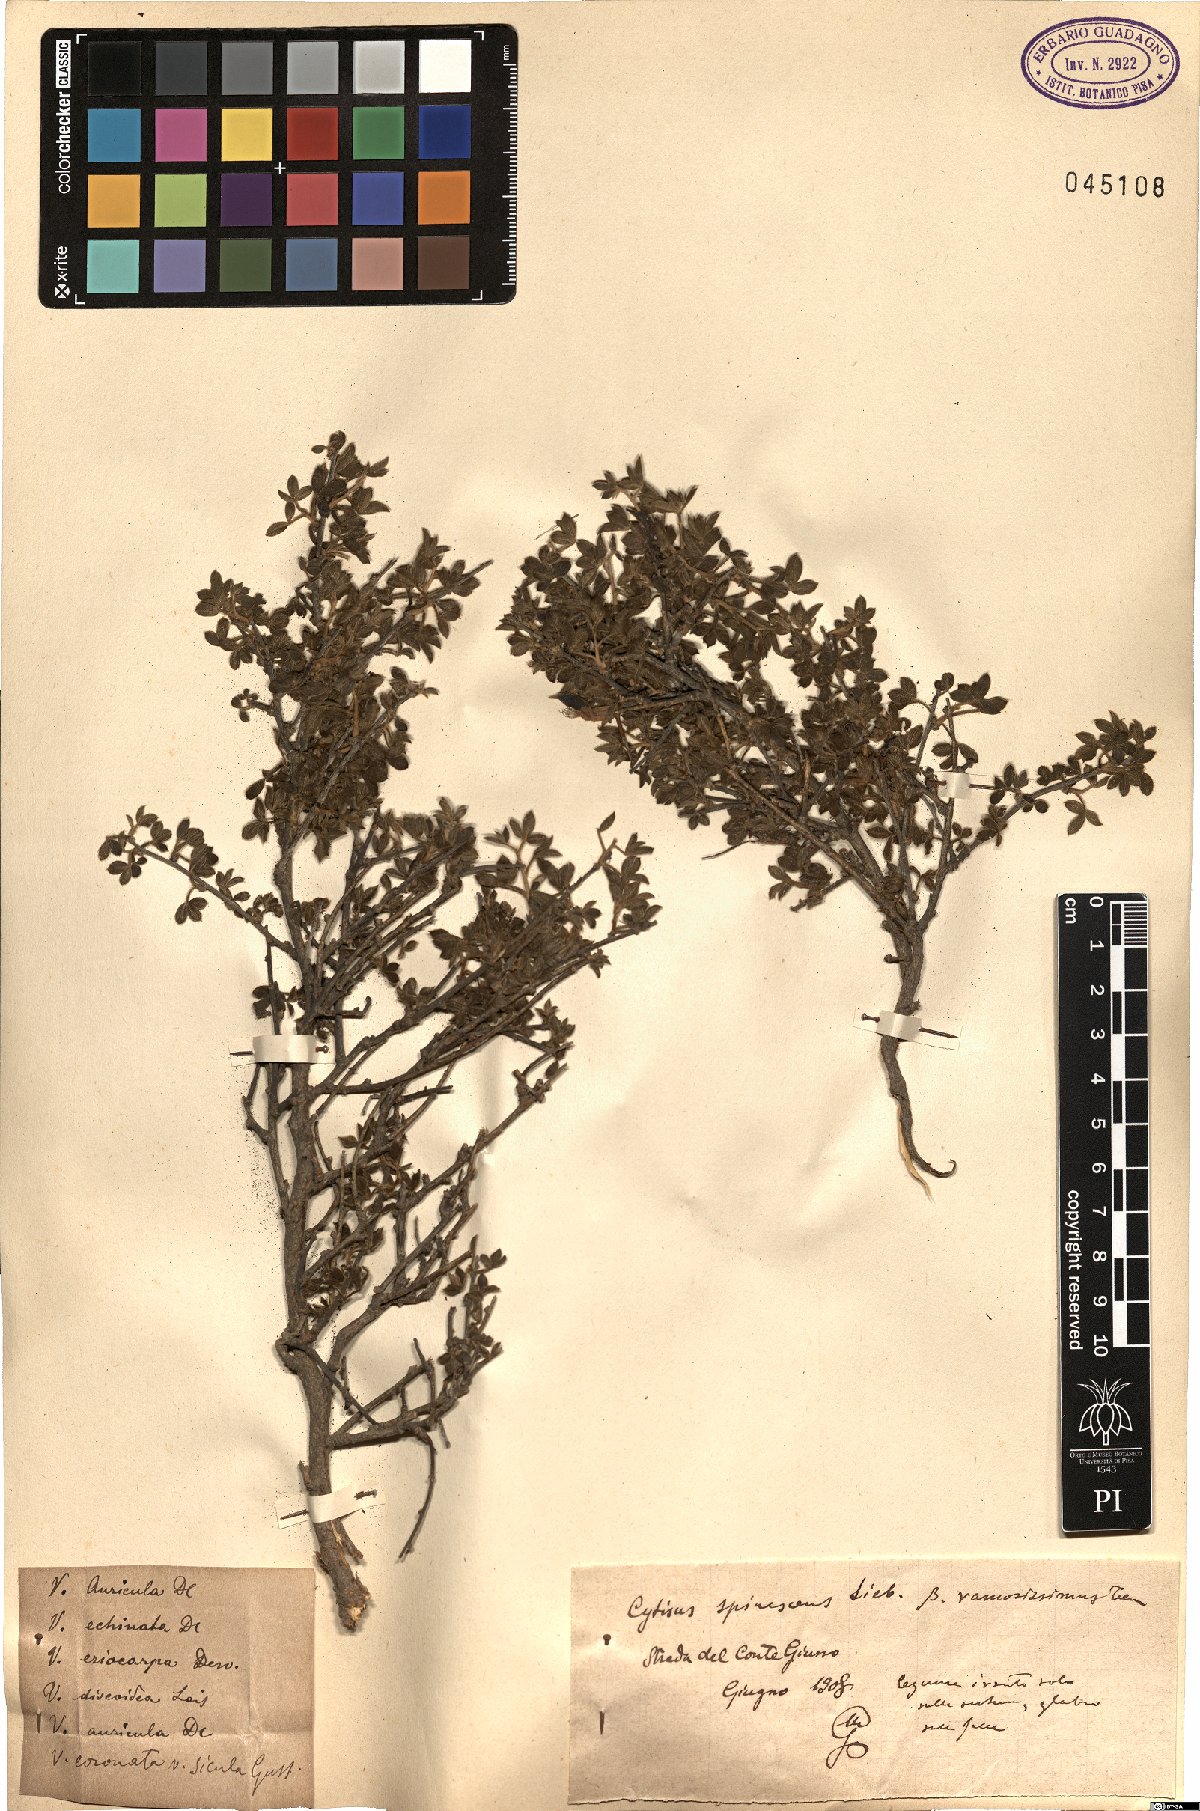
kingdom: Plantae
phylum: Tracheophyta
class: Magnoliopsida
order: Fabales
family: Fabaceae
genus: Chamaecytisus
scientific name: Chamaecytisus spinescens
